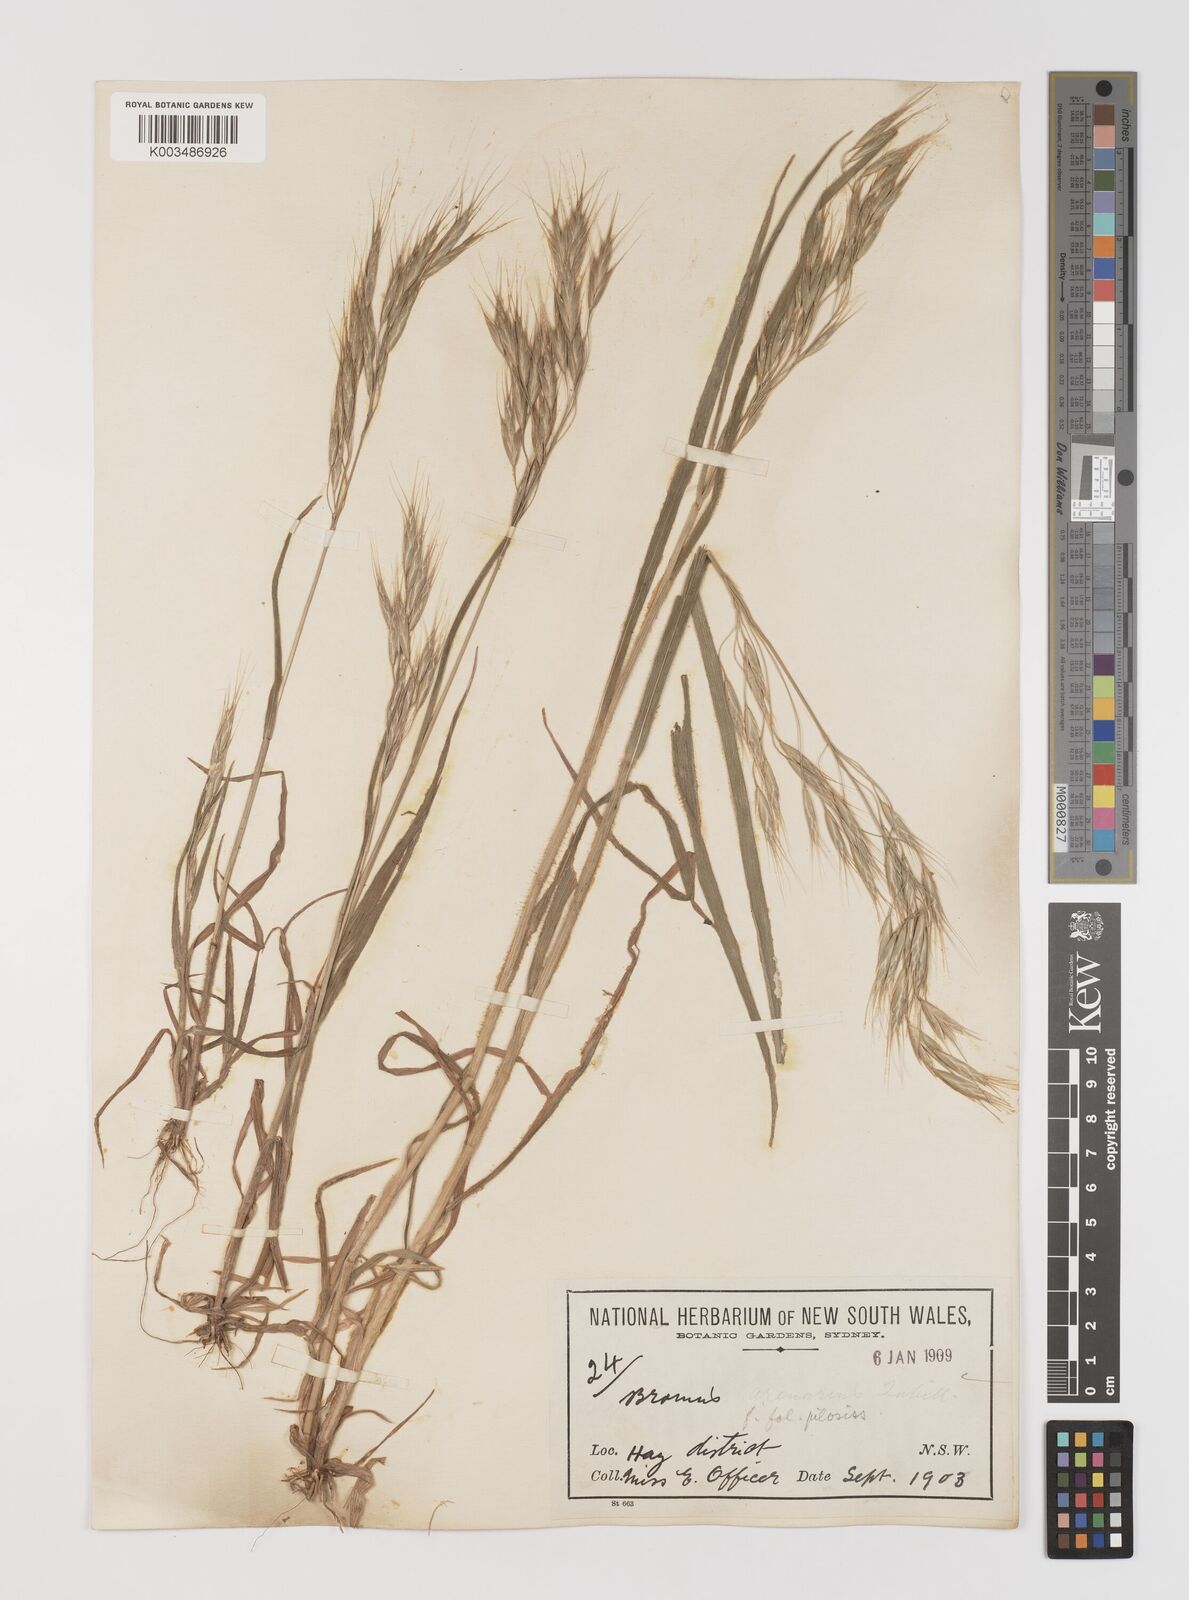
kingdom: Plantae
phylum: Tracheophyta
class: Liliopsida
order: Poales
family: Poaceae
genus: Bromus
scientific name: Bromus arenarius
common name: Australian brome
